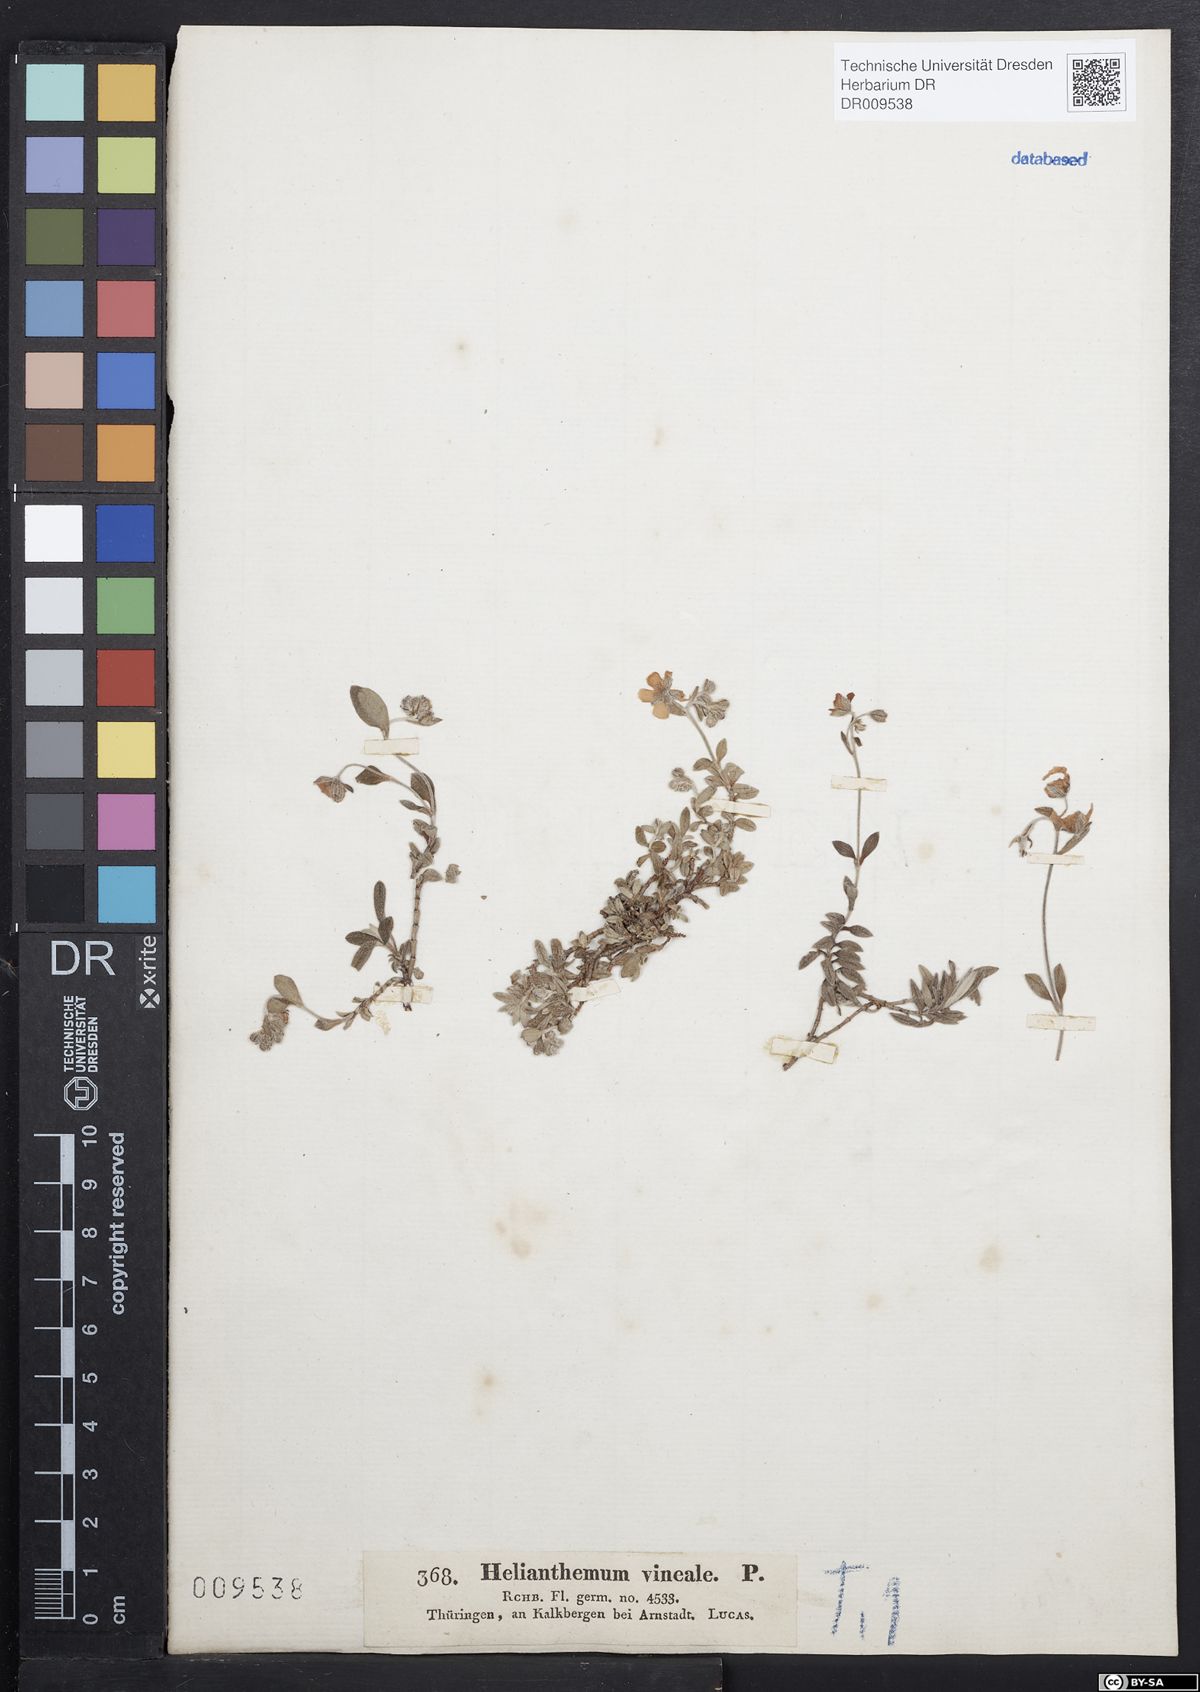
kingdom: Plantae
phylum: Tracheophyta
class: Magnoliopsida
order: Malvales
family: Cistaceae
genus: Helianthemum
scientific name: Helianthemum canum
